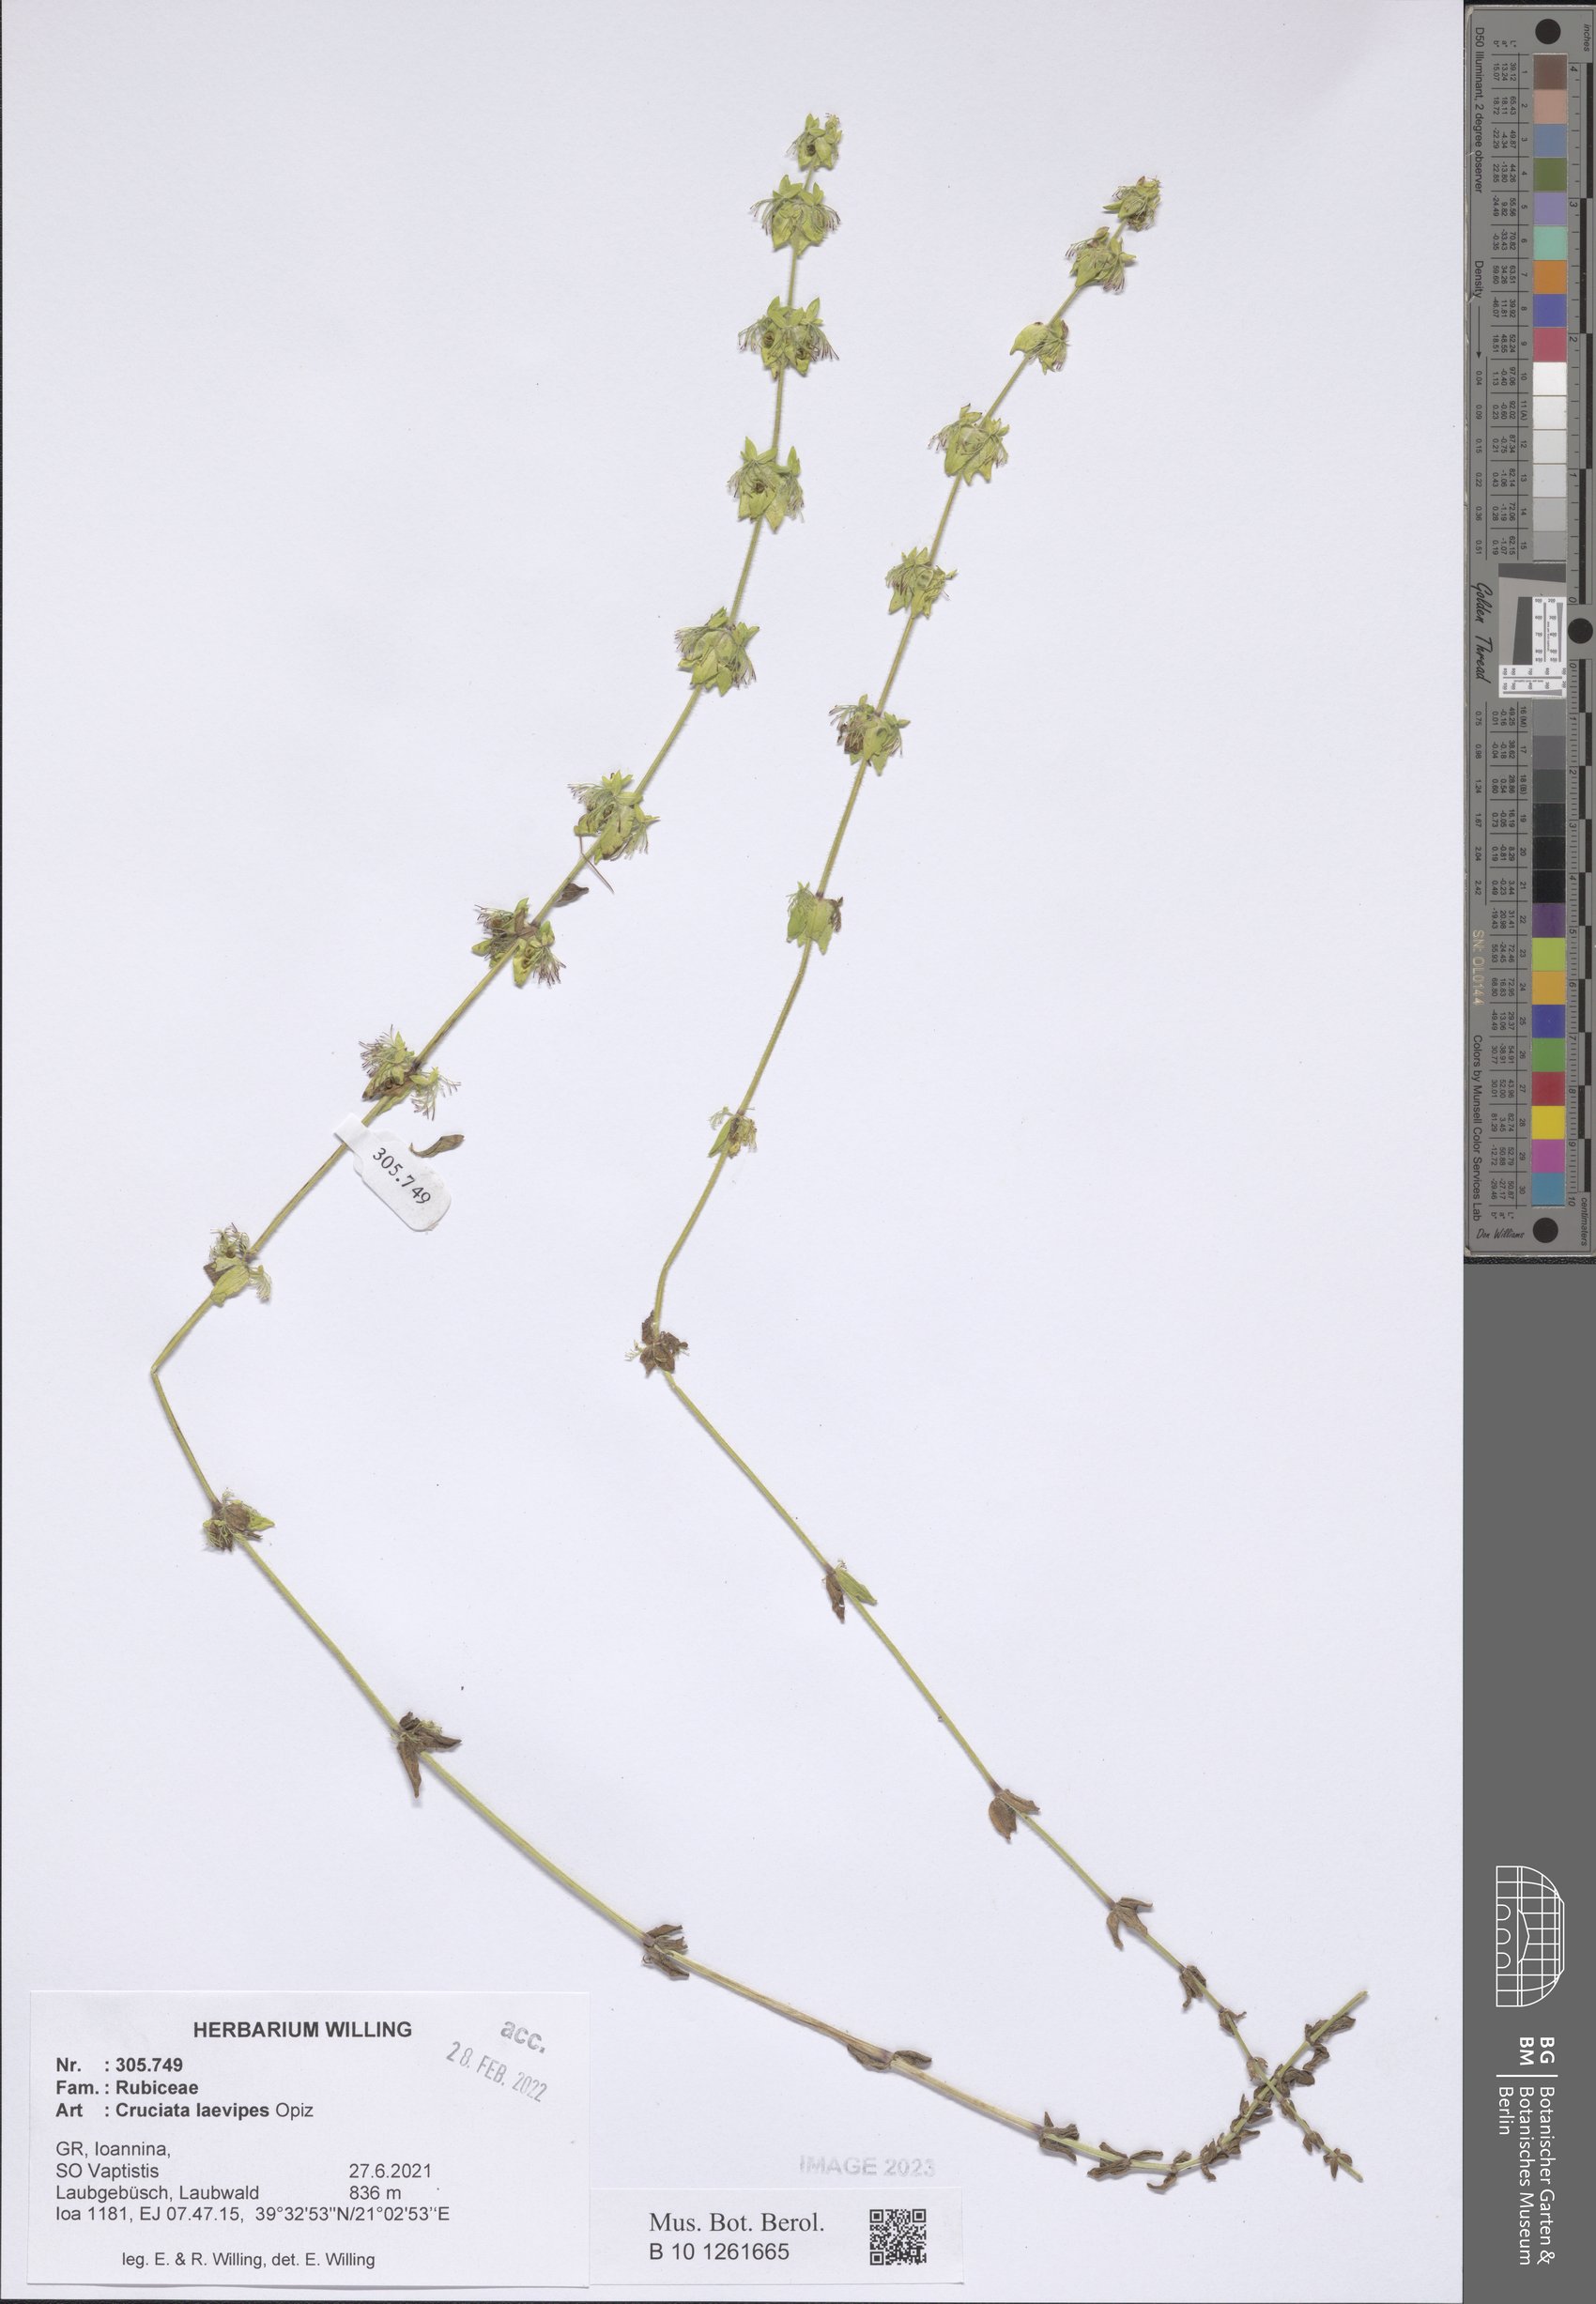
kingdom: Plantae
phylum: Tracheophyta
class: Magnoliopsida
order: Gentianales
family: Rubiaceae
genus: Cruciata
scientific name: Cruciata laevipes
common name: Crosswort
